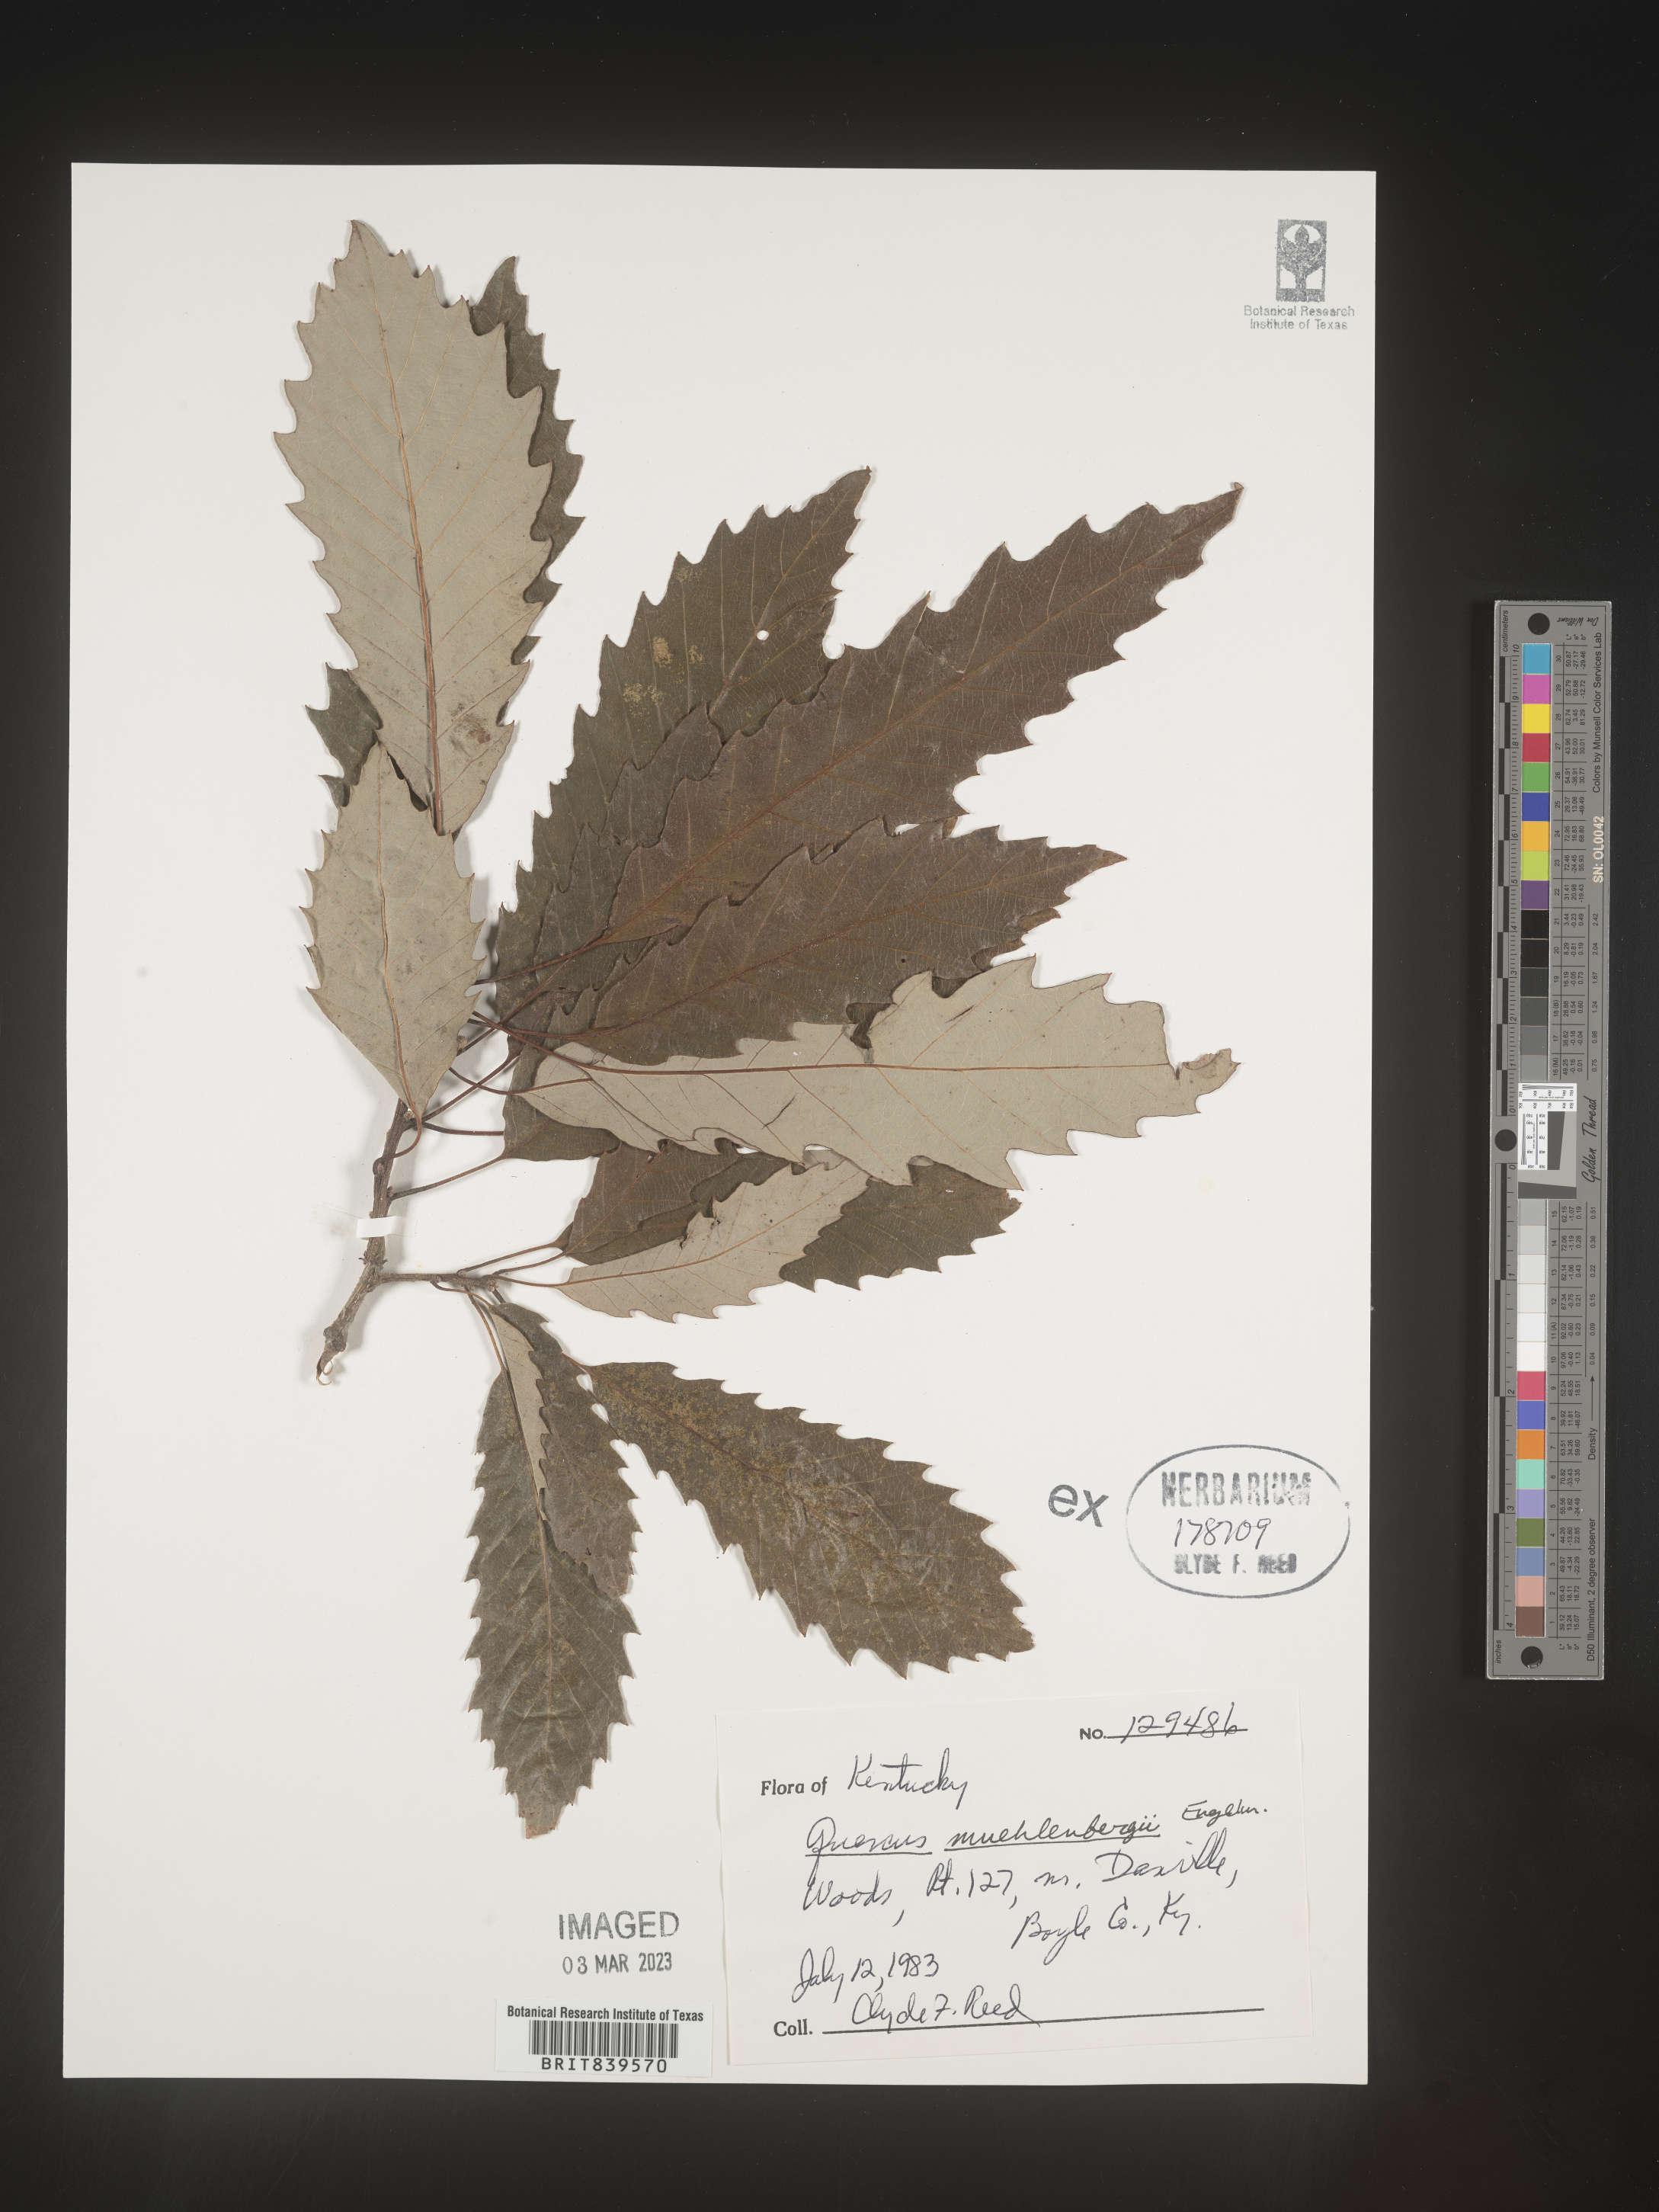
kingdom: Plantae
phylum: Tracheophyta
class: Magnoliopsida
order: Fagales
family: Fagaceae
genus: Quercus
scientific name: Quercus muehlenbergii
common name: Chinkapin oak
